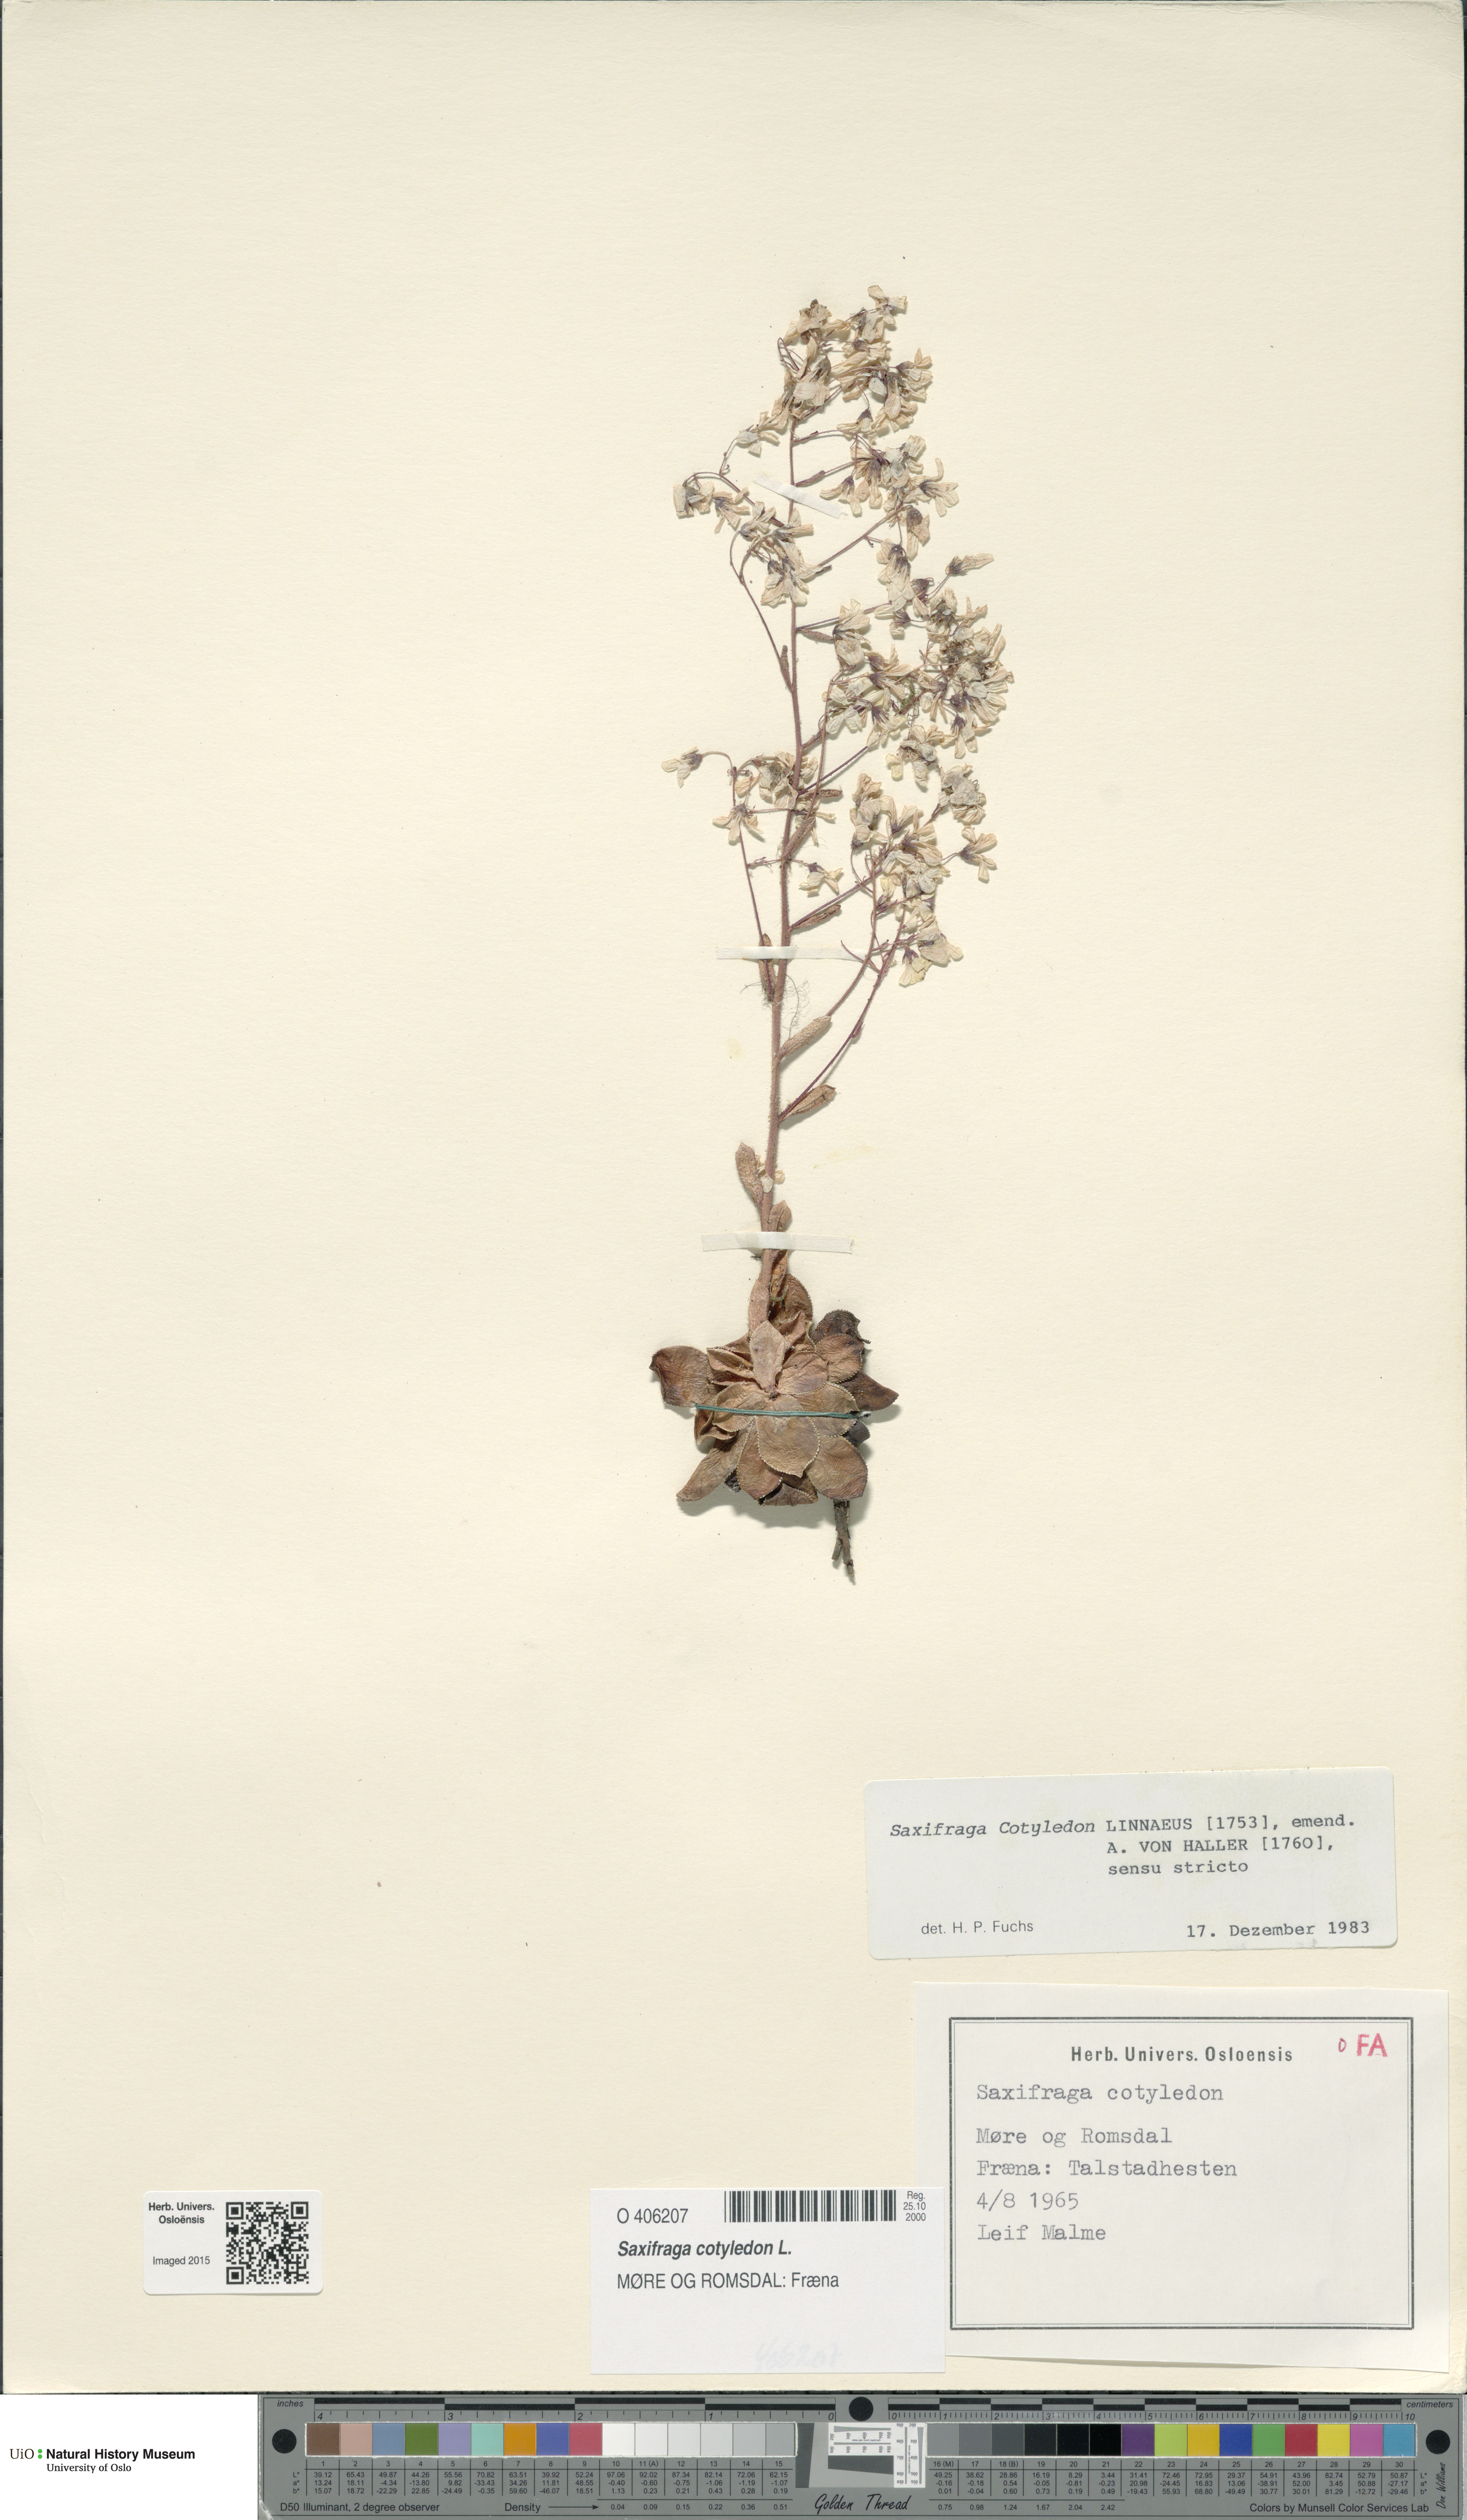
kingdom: Plantae
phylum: Tracheophyta
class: Magnoliopsida
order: Saxifragales
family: Saxifragaceae
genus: Saxifraga
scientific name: Saxifraga cotyledon
